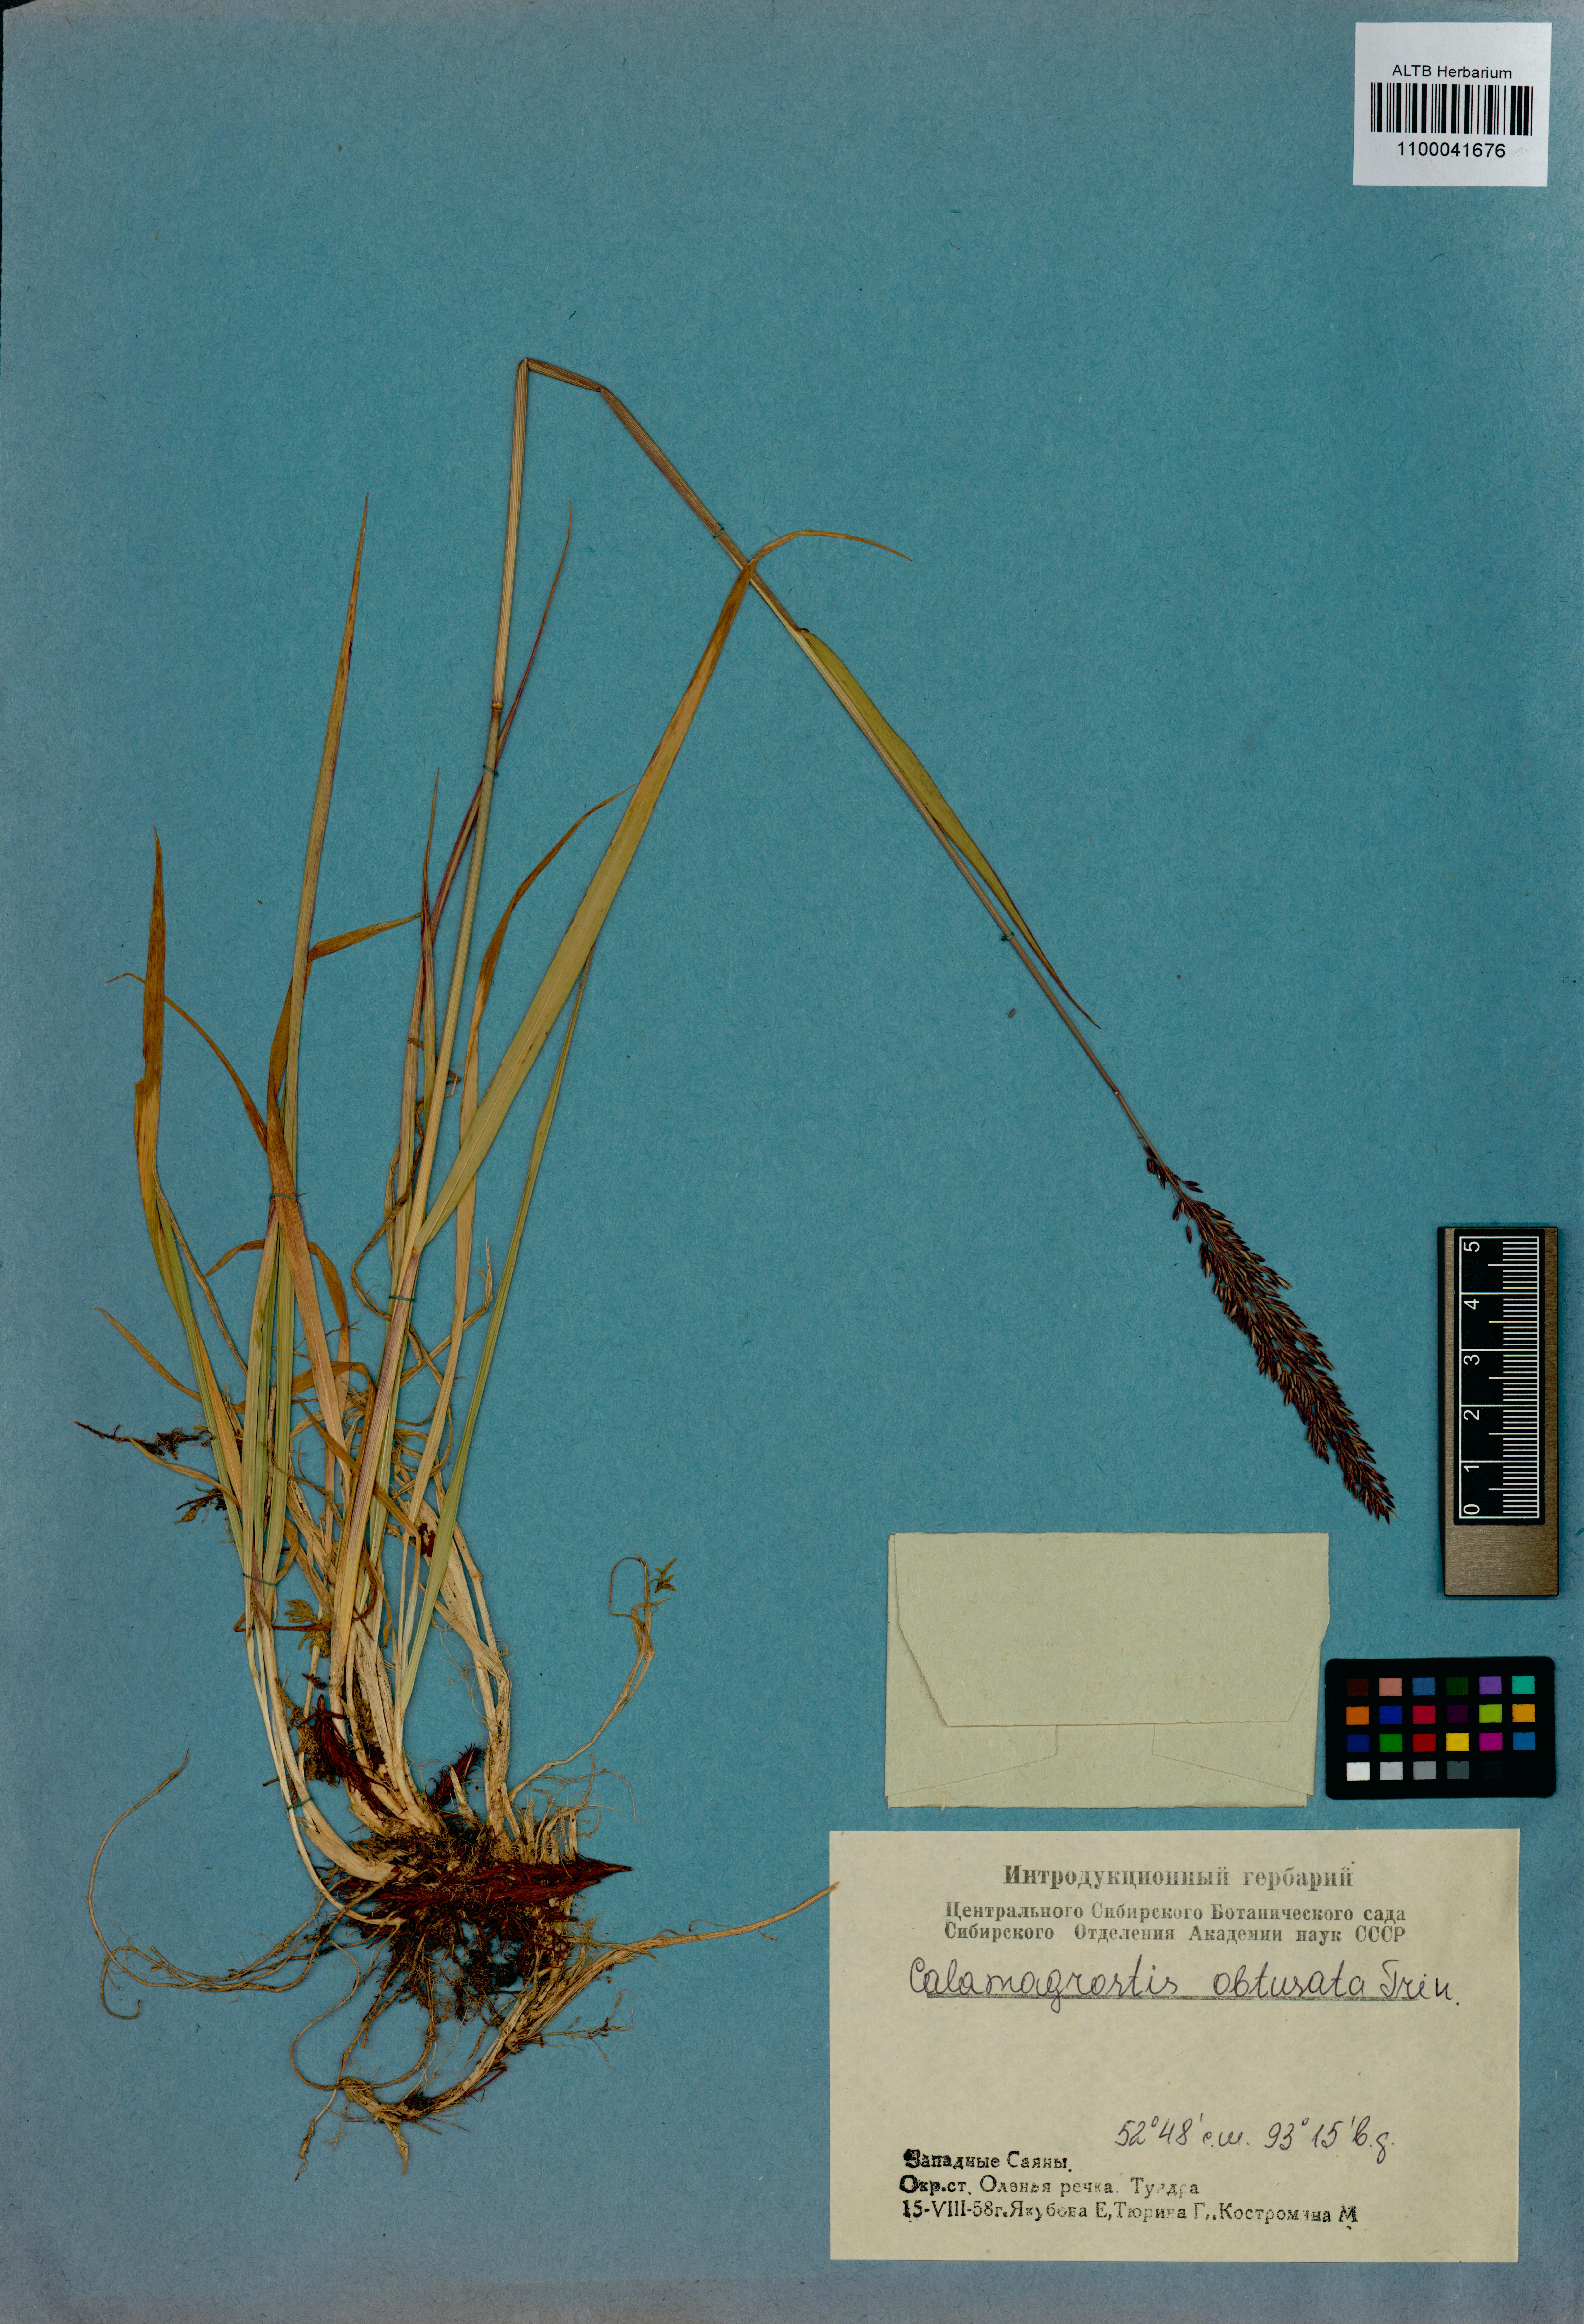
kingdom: Plantae
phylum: Tracheophyta
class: Liliopsida
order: Poales
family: Poaceae
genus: Calamagrostis
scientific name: Calamagrostis obtusata
